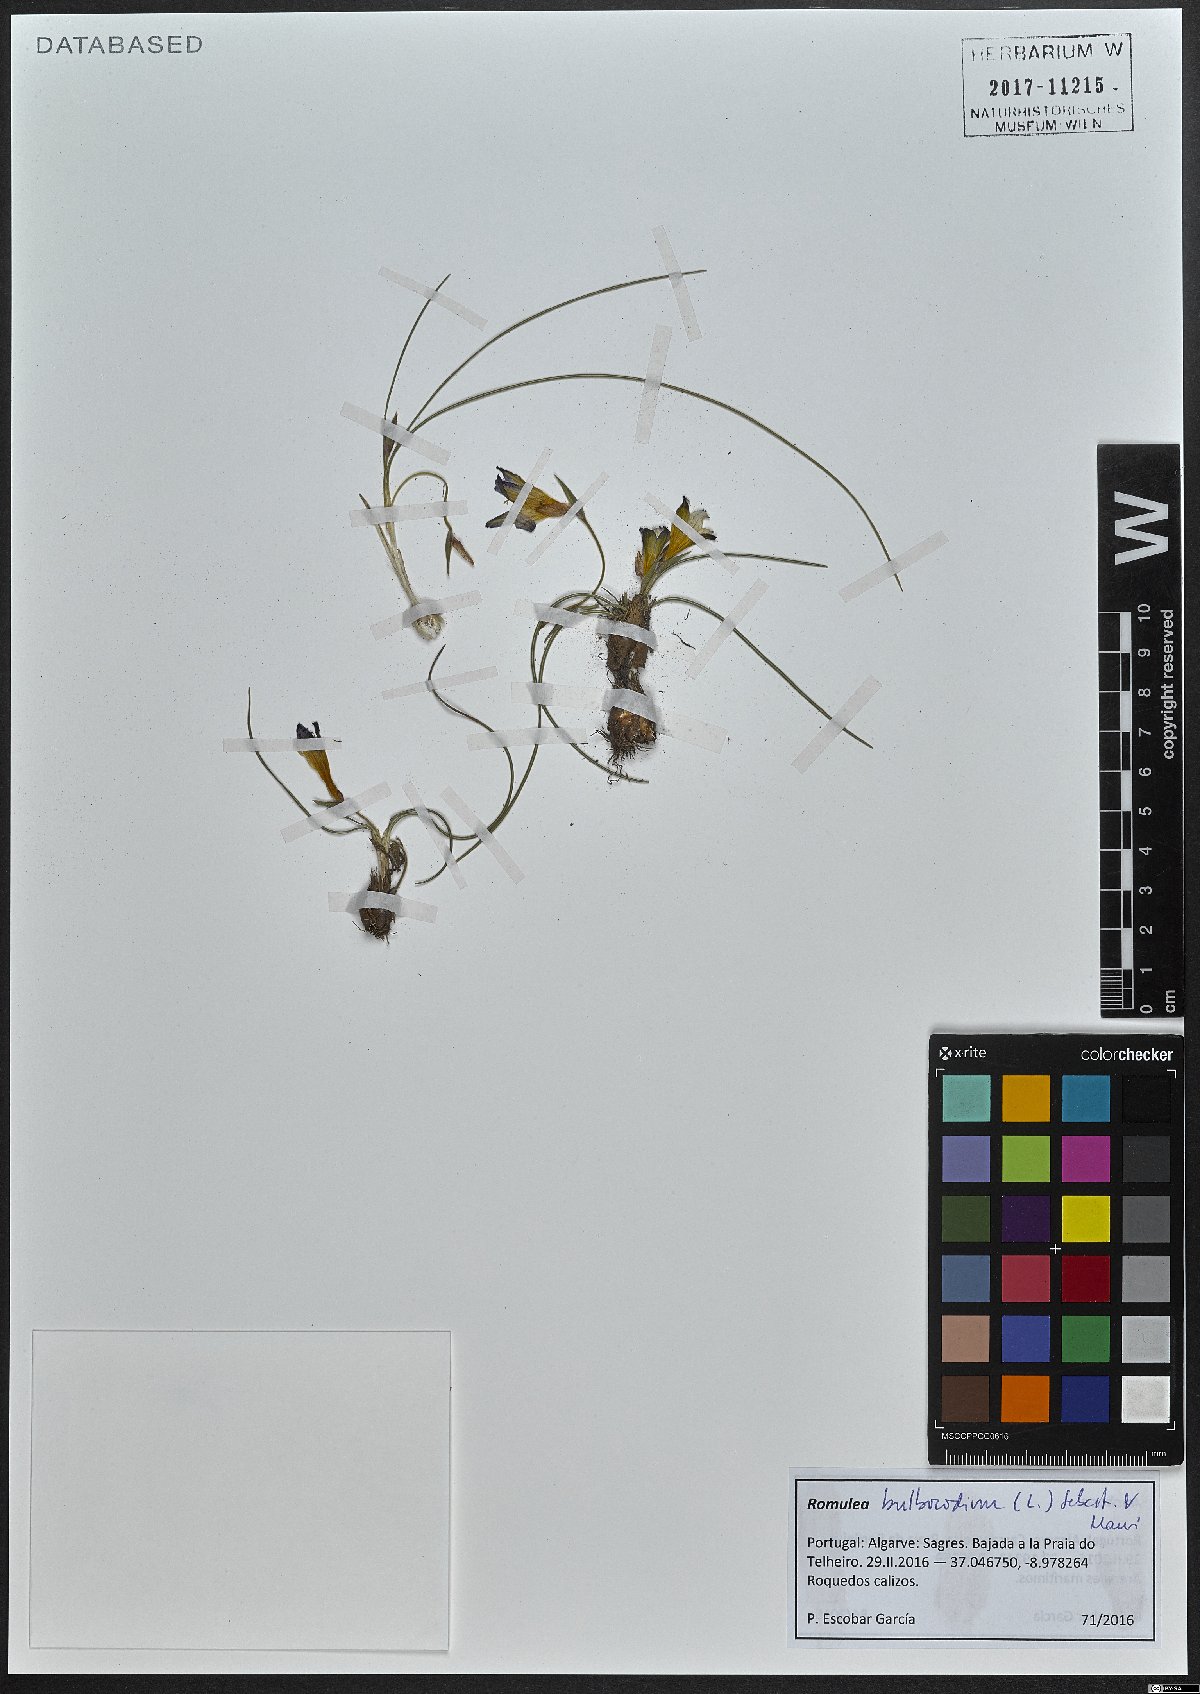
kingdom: Plantae
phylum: Tracheophyta
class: Liliopsida
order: Asparagales
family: Iridaceae
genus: Romulea
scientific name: Romulea bulbocodium
